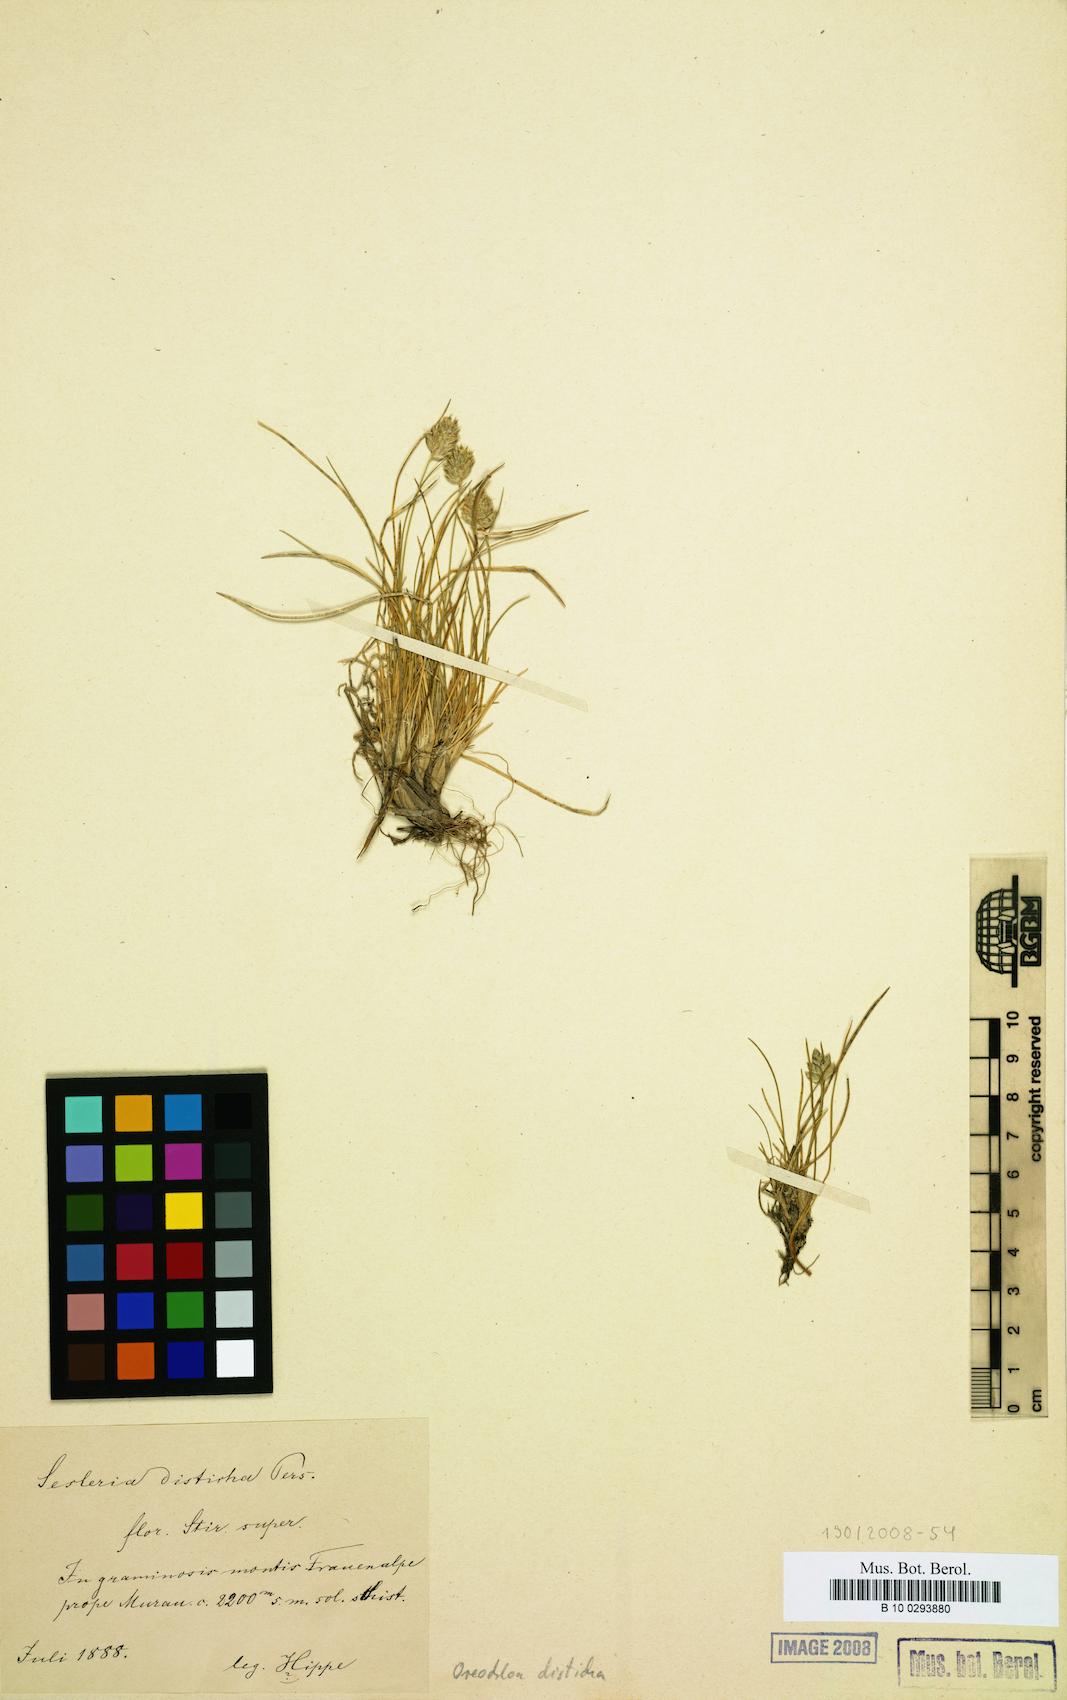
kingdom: Plantae
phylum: Tracheophyta
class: Liliopsida
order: Poales
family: Poaceae
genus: Oreochloa
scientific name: Oreochloa disticha
